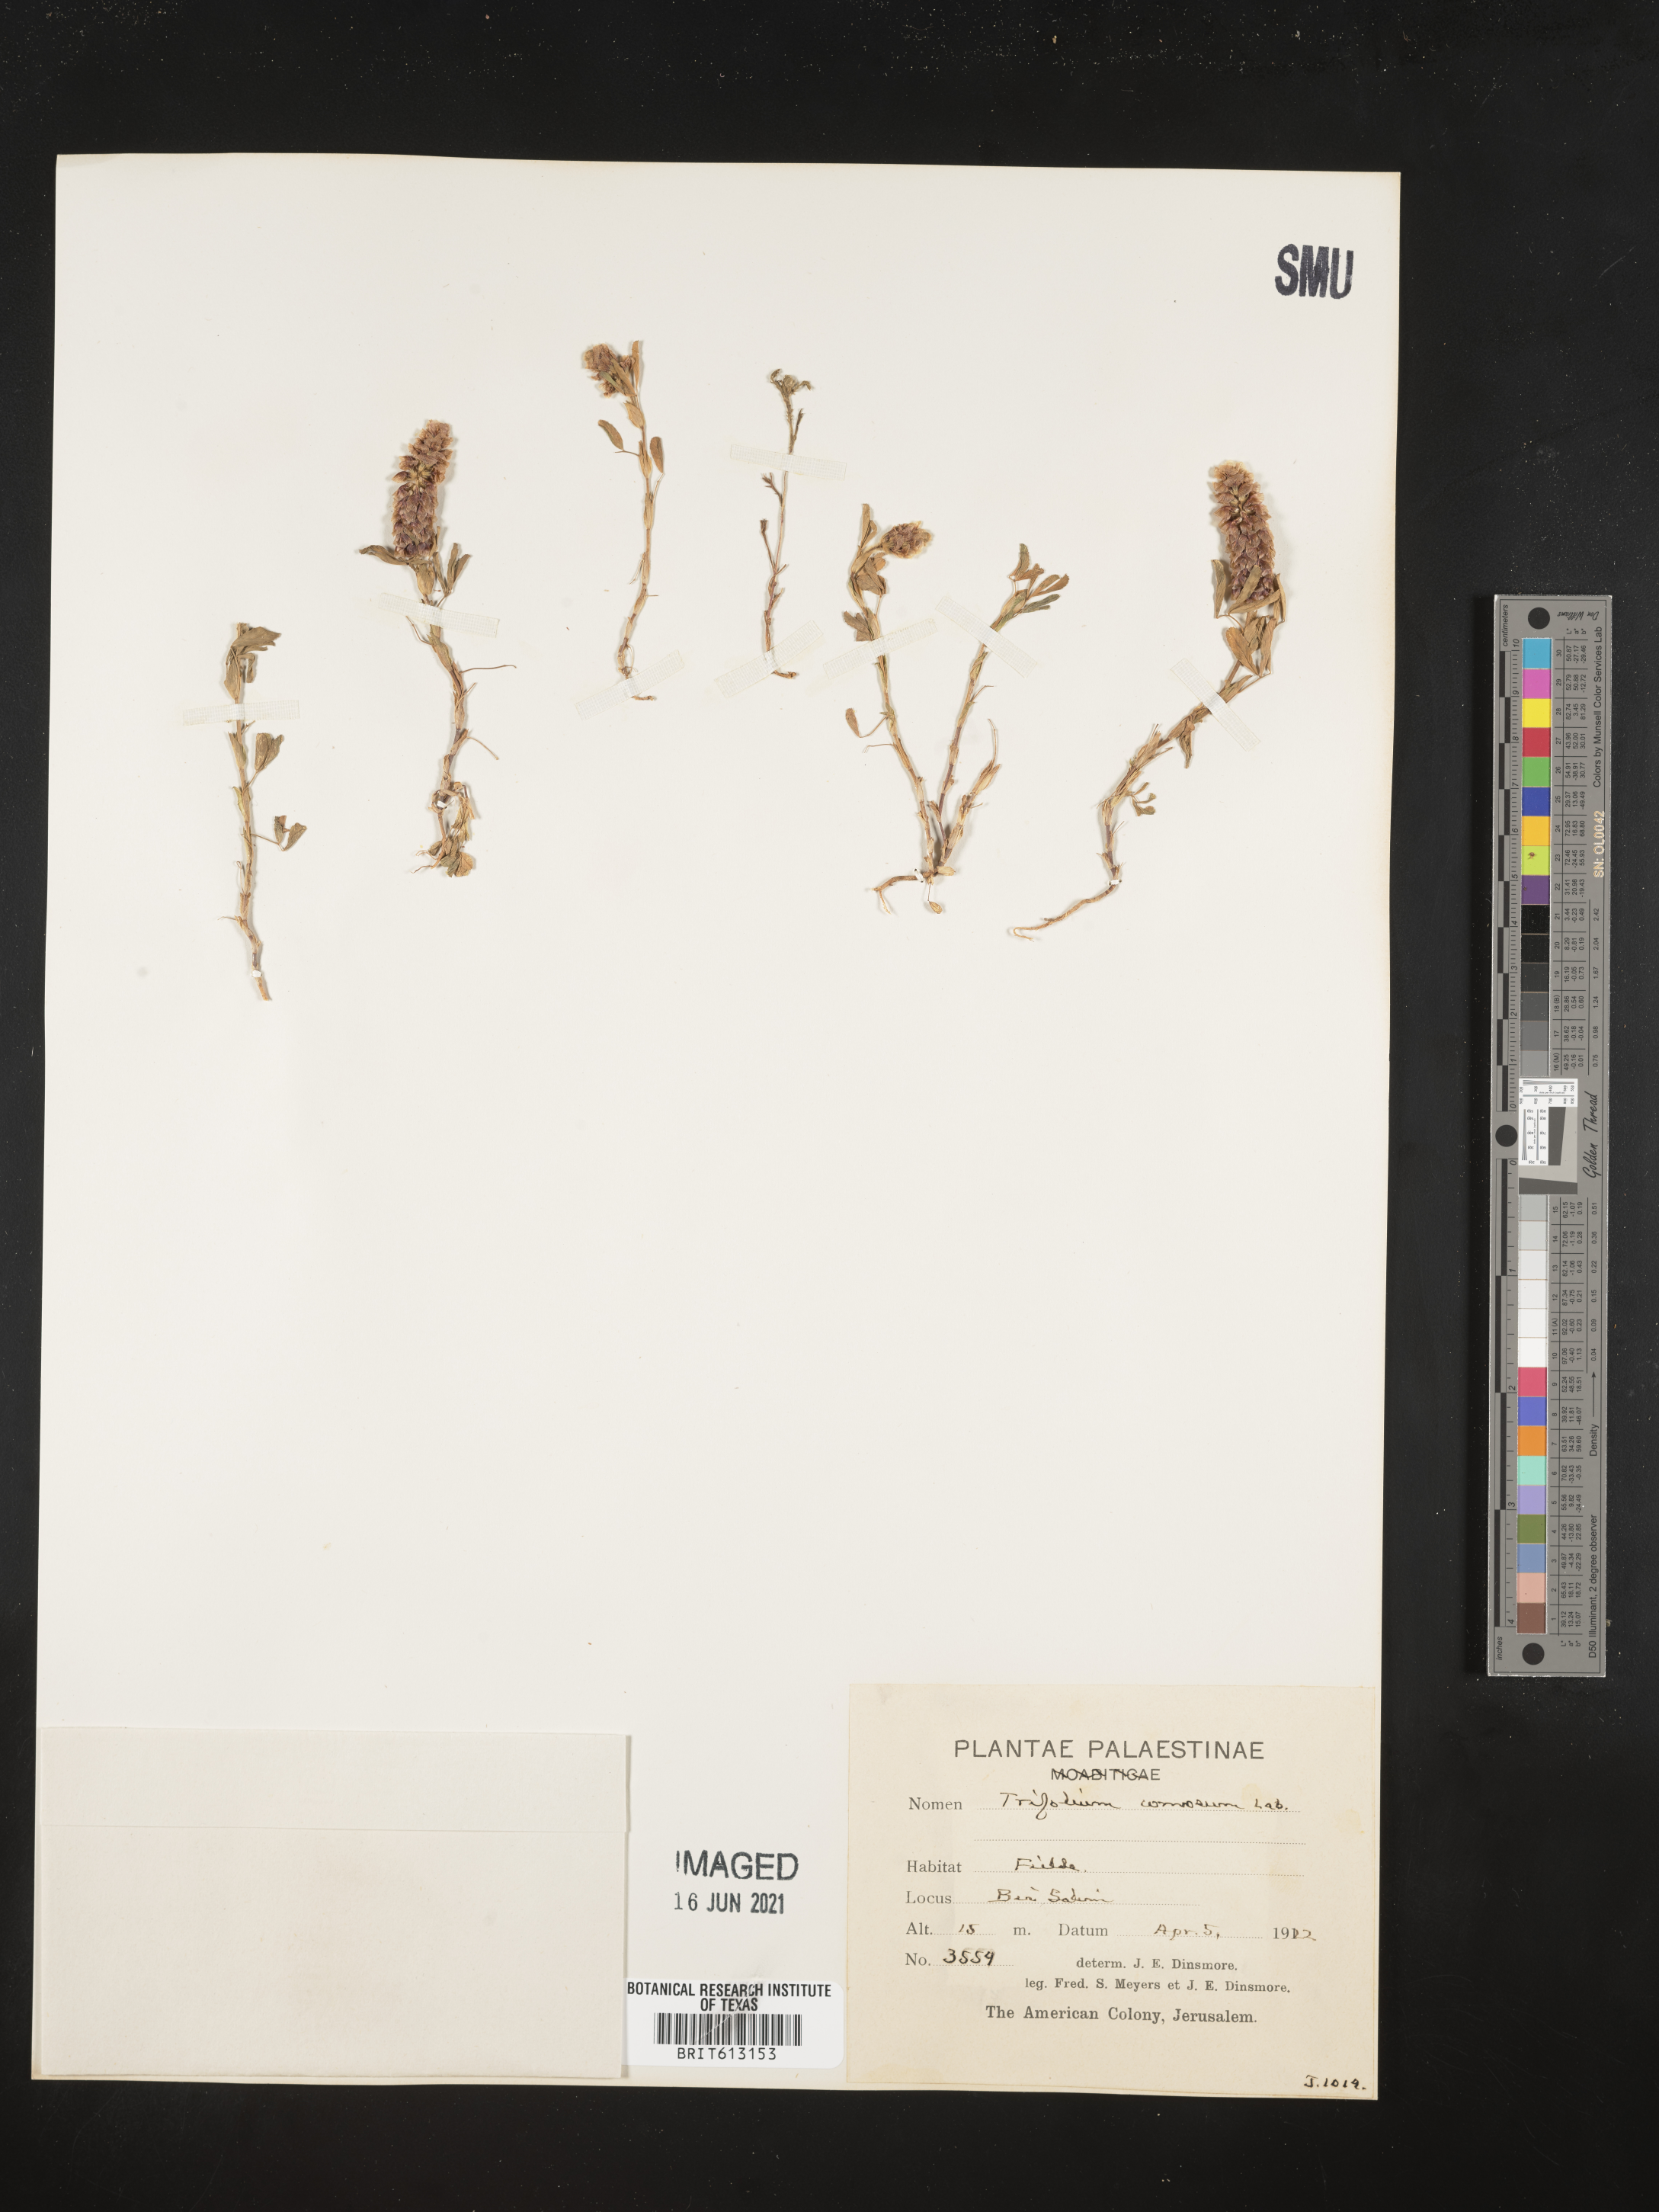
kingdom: Plantae
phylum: Tracheophyta
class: Magnoliopsida
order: Fabales
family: Fabaceae
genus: Trifolium
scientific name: Trifolium billardierei
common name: Labillardiere's clover
